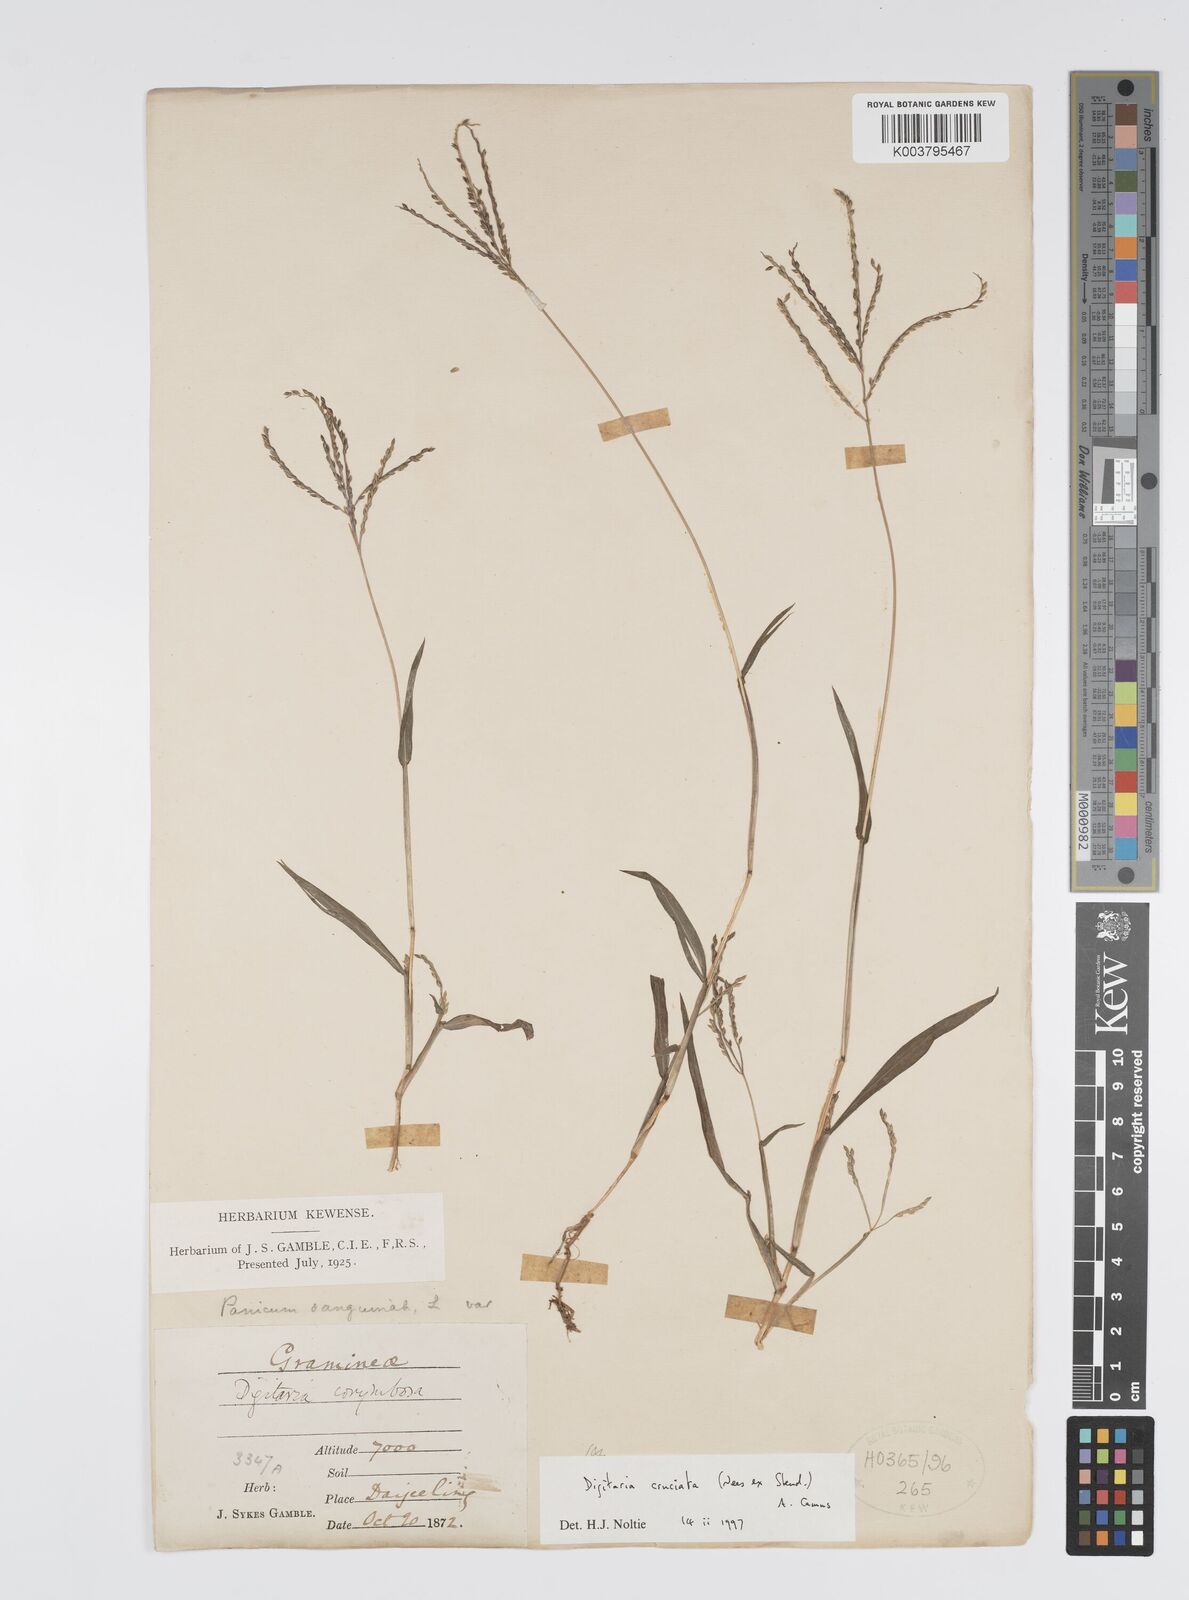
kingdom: Plantae
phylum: Tracheophyta
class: Liliopsida
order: Poales
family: Poaceae
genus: Digitaria
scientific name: Digitaria cruciata
